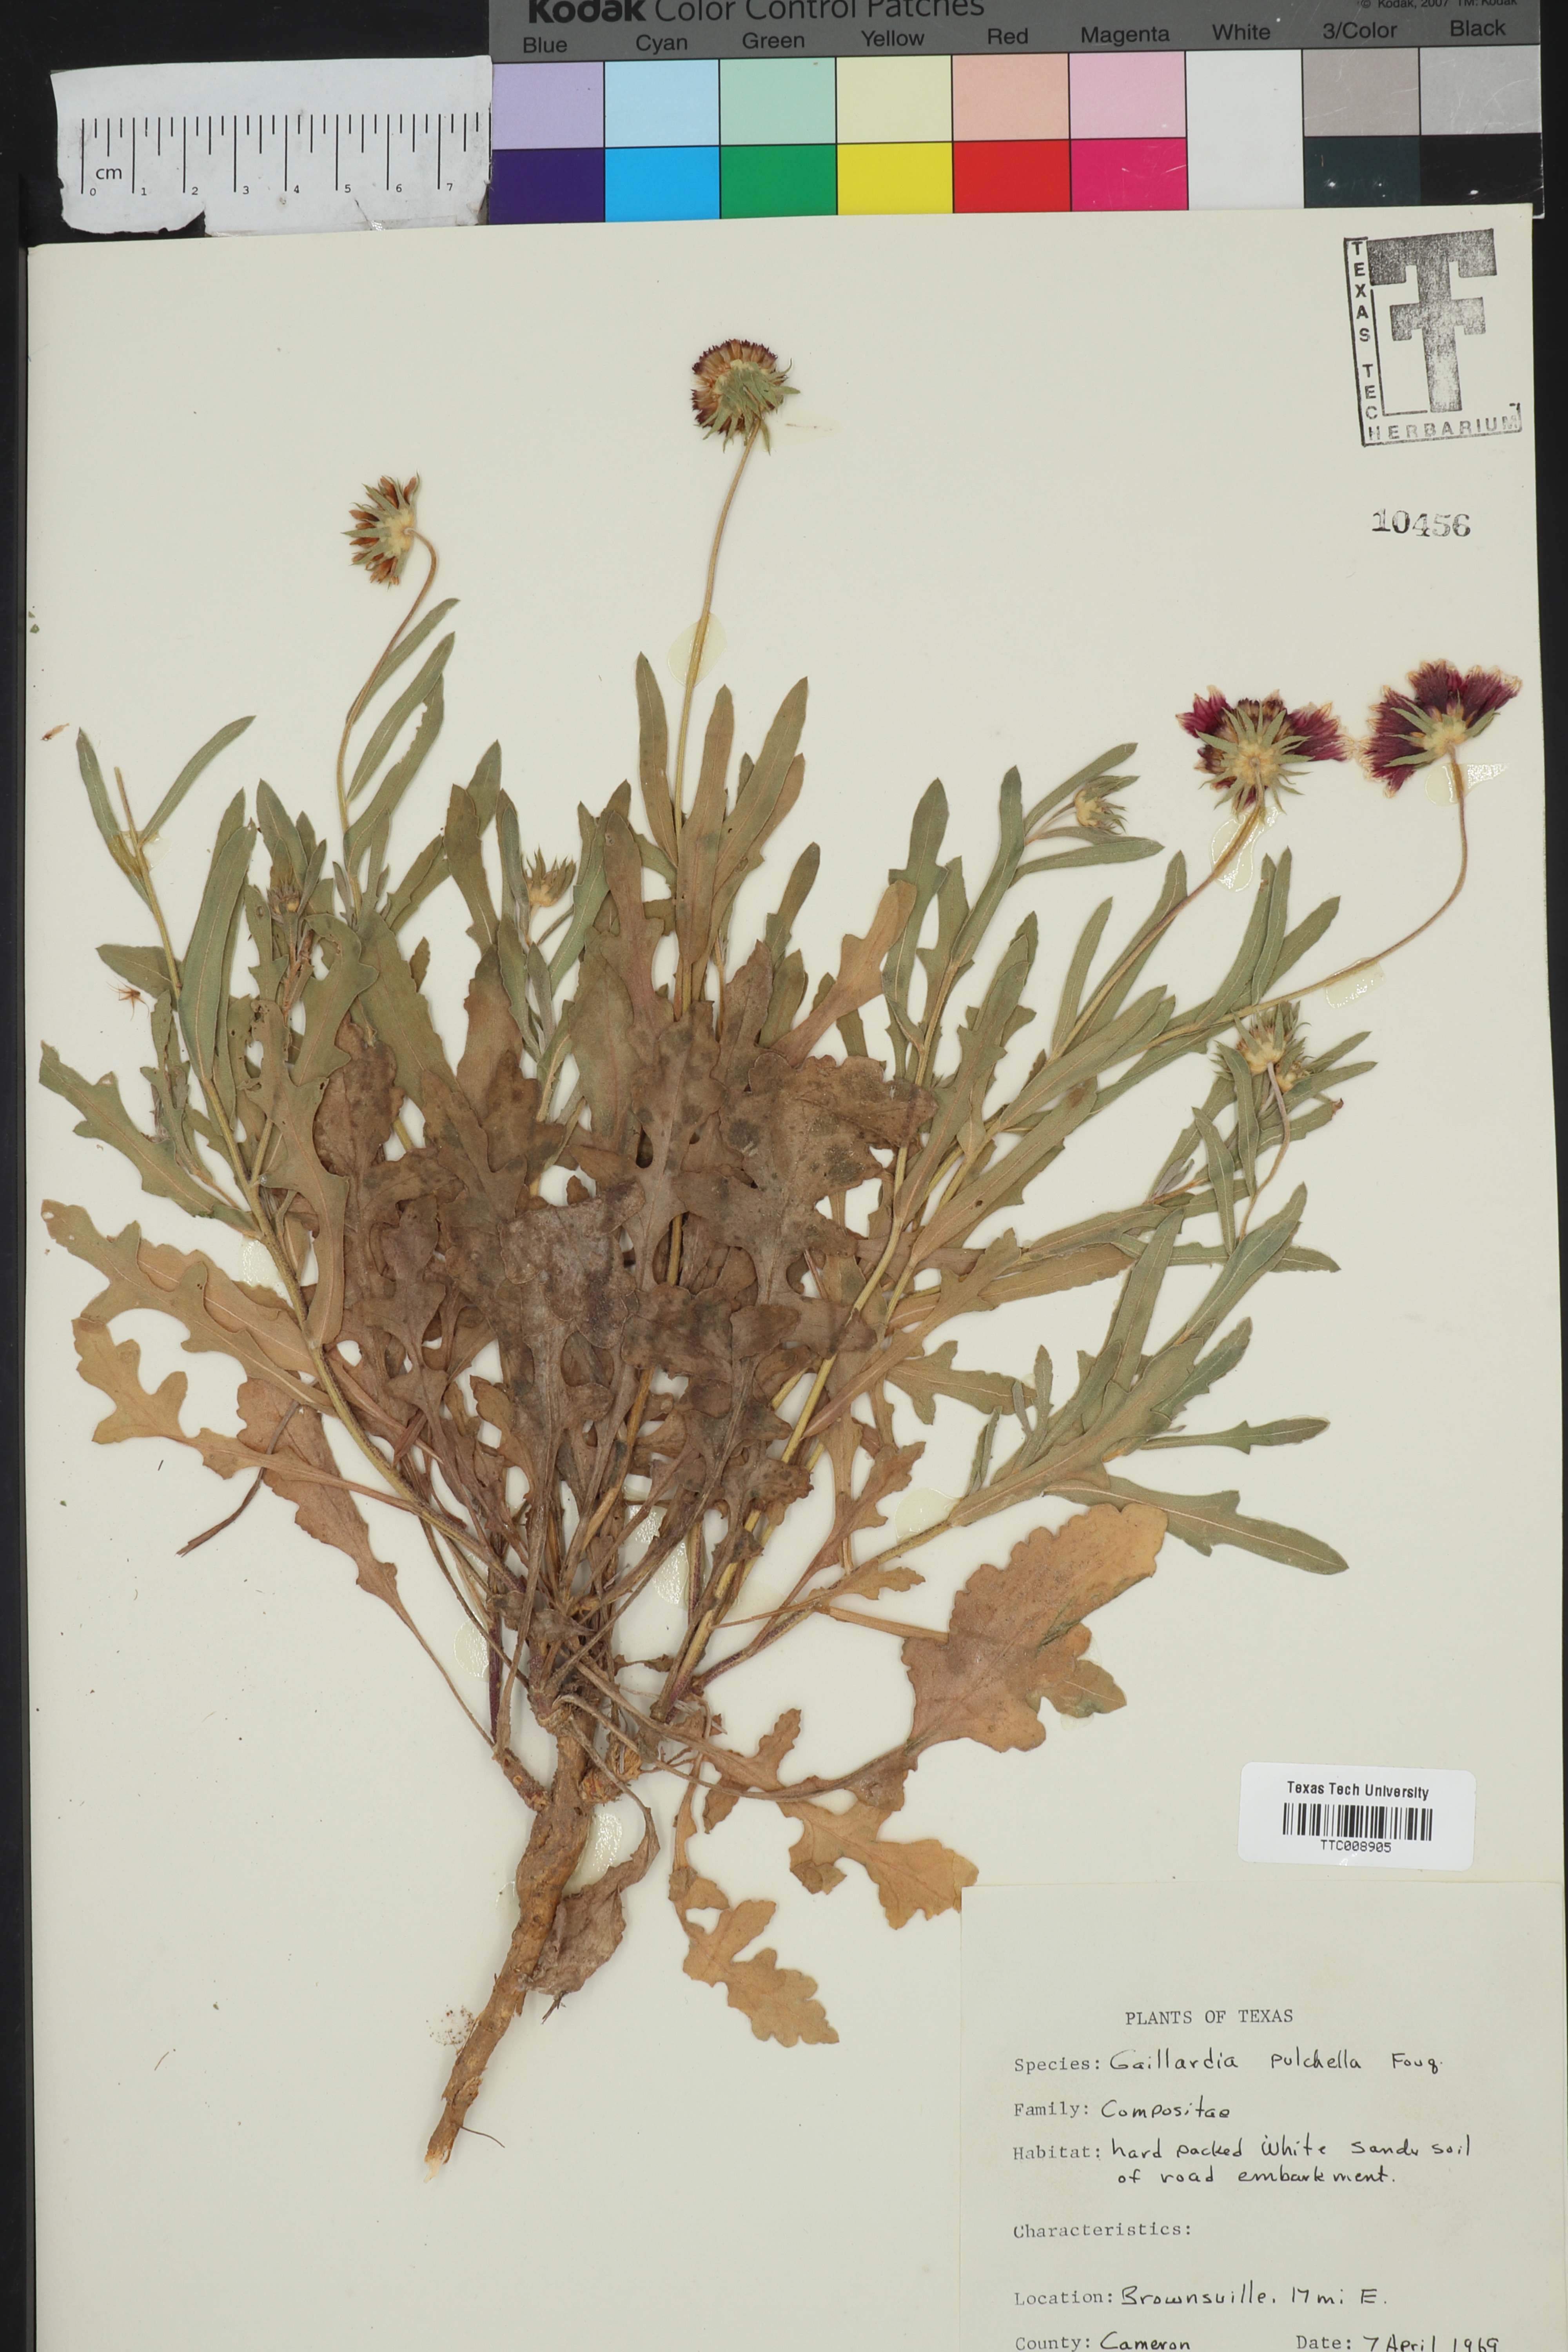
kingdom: Plantae
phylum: Tracheophyta
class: Magnoliopsida
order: Asterales
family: Asteraceae
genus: Gaillardia
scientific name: Gaillardia pulchella
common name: Firewheel
